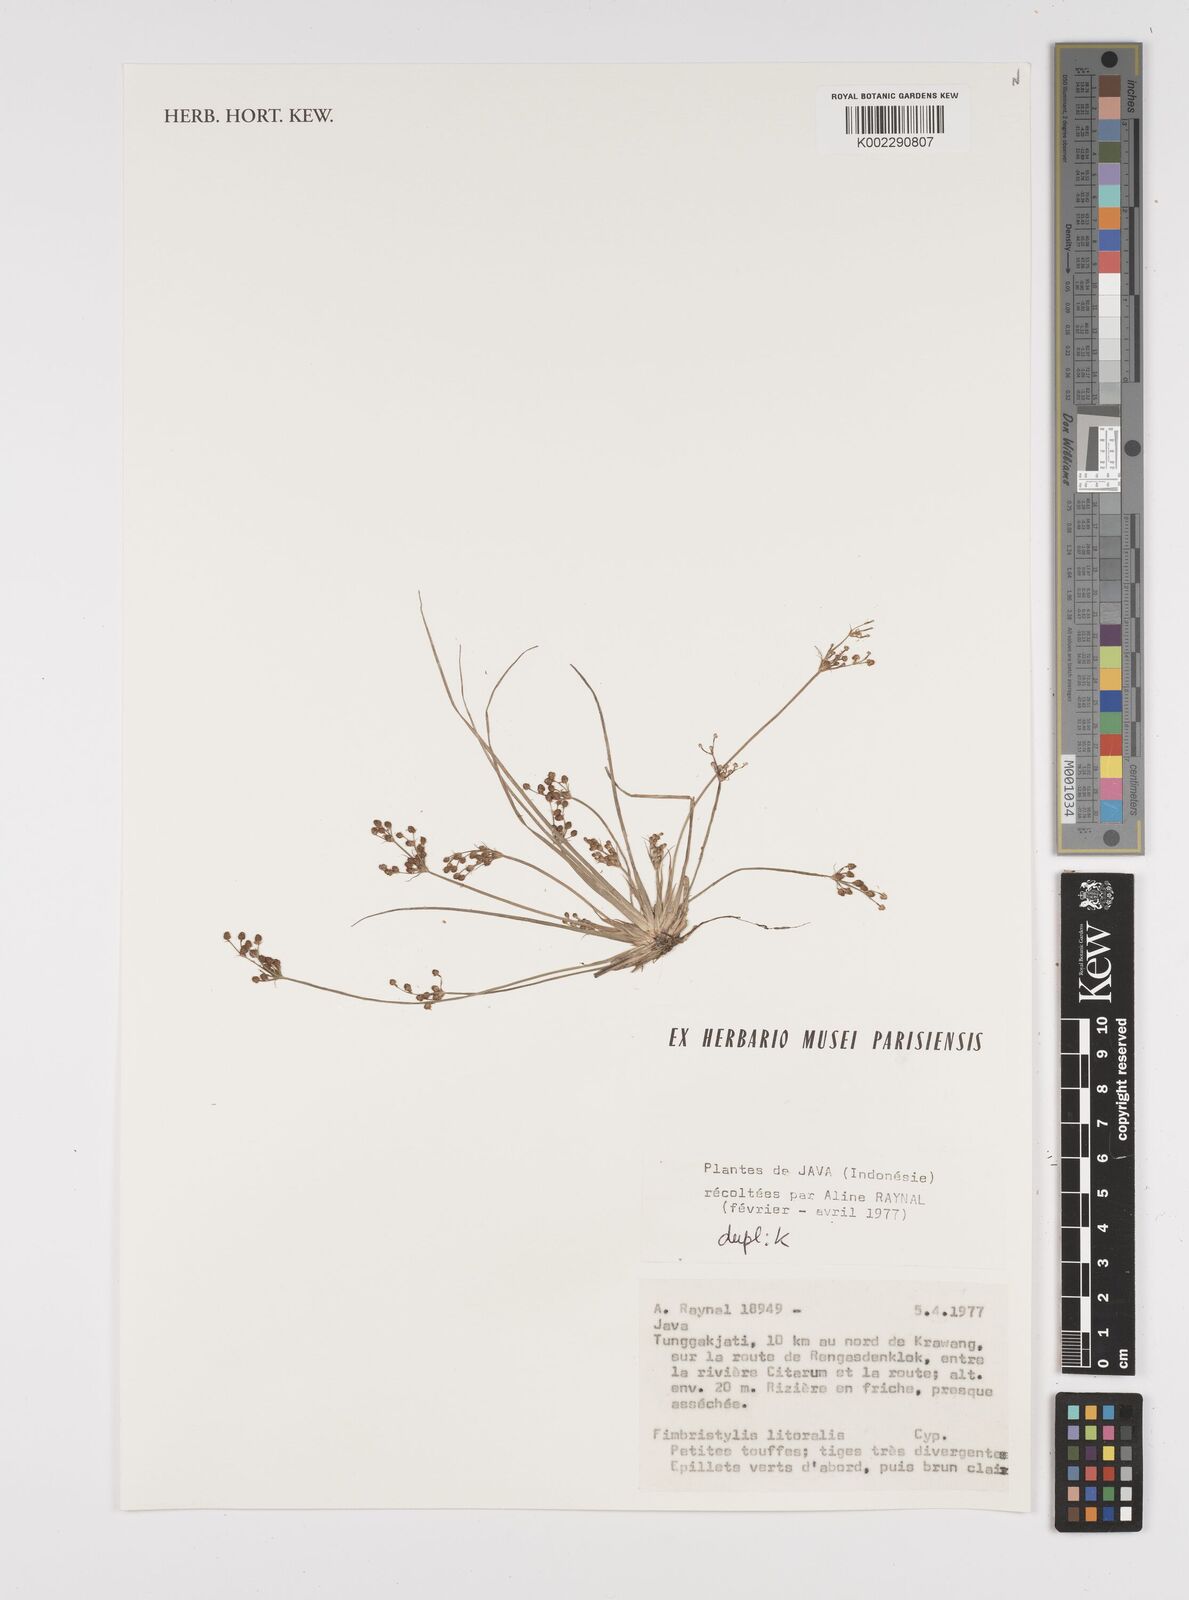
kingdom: Plantae
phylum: Tracheophyta
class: Liliopsida
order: Poales
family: Cyperaceae
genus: Fimbristylis
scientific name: Fimbristylis littoralis
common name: Fimbry
